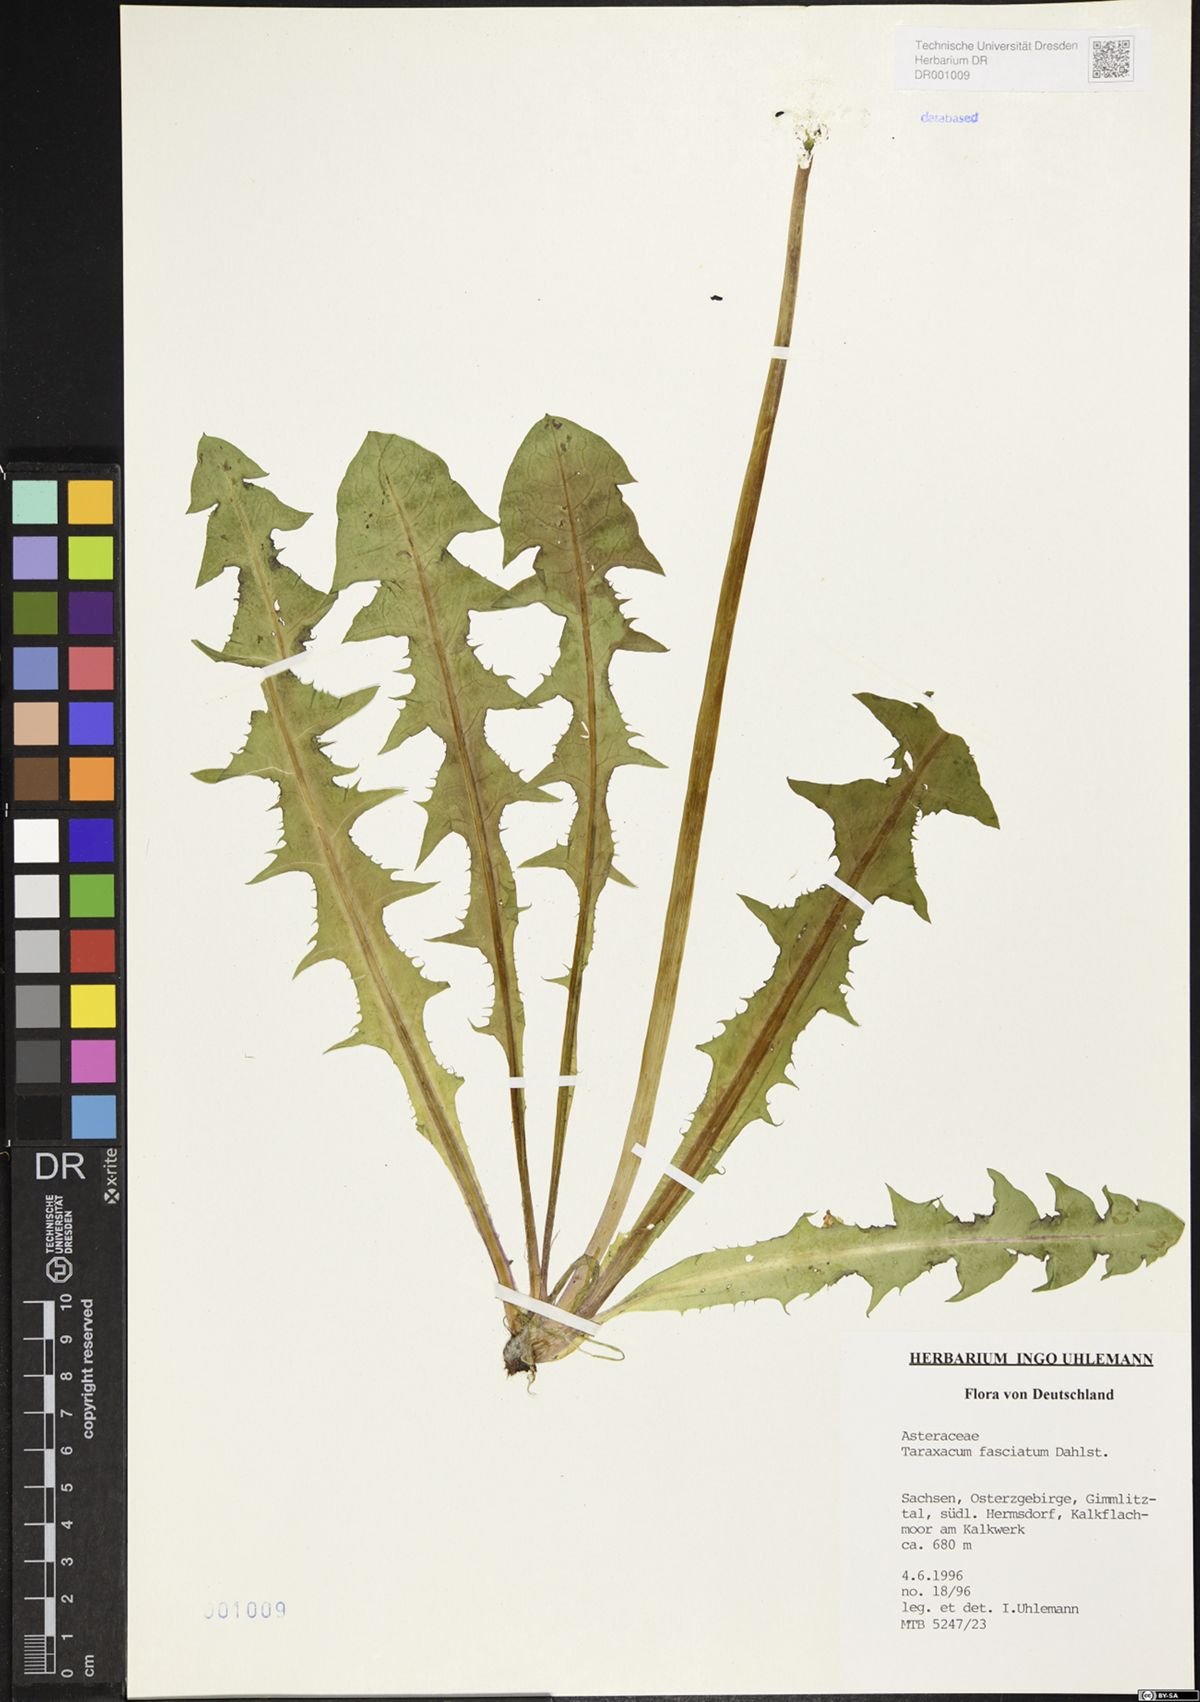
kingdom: Plantae
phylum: Tracheophyta
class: Magnoliopsida
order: Asterales
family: Asteraceae
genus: Taraxacum
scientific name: Taraxacum fasciatum
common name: Dense-bracted dandelion
